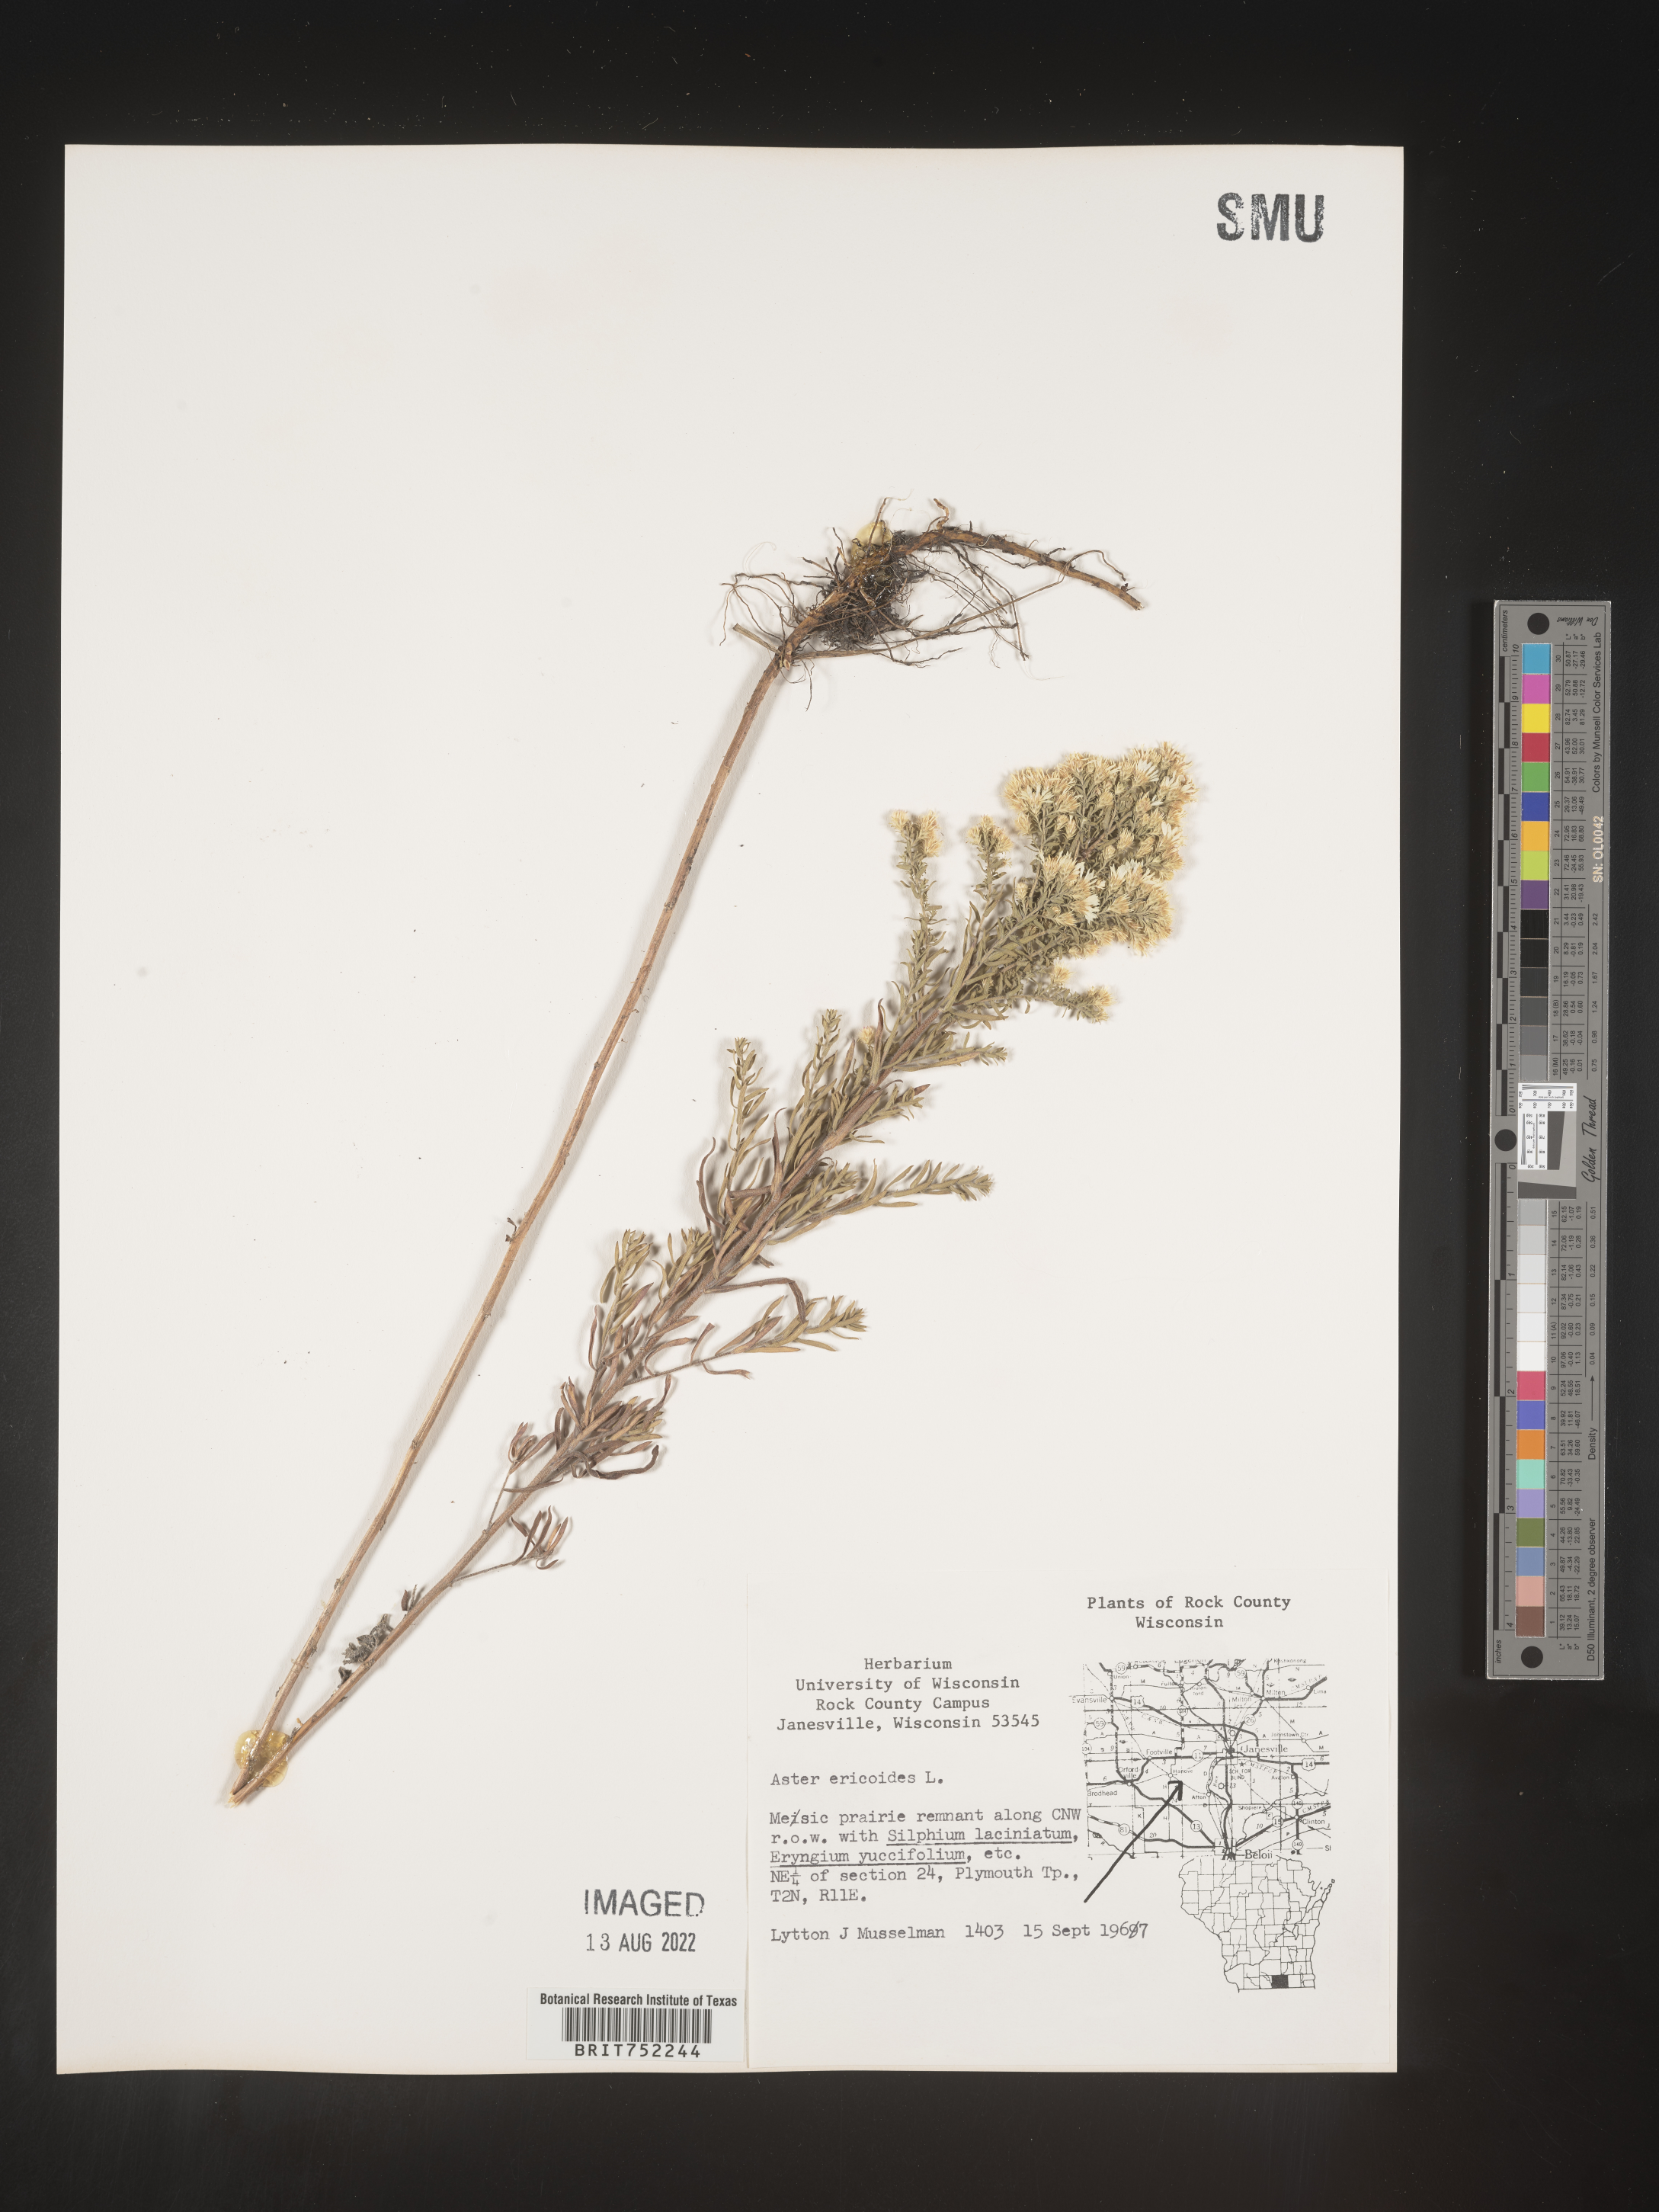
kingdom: Plantae
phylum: Tracheophyta
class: Magnoliopsida
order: Asterales
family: Asteraceae
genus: Symphyotrichum
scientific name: Symphyotrichum ericoides
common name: Heath aster
